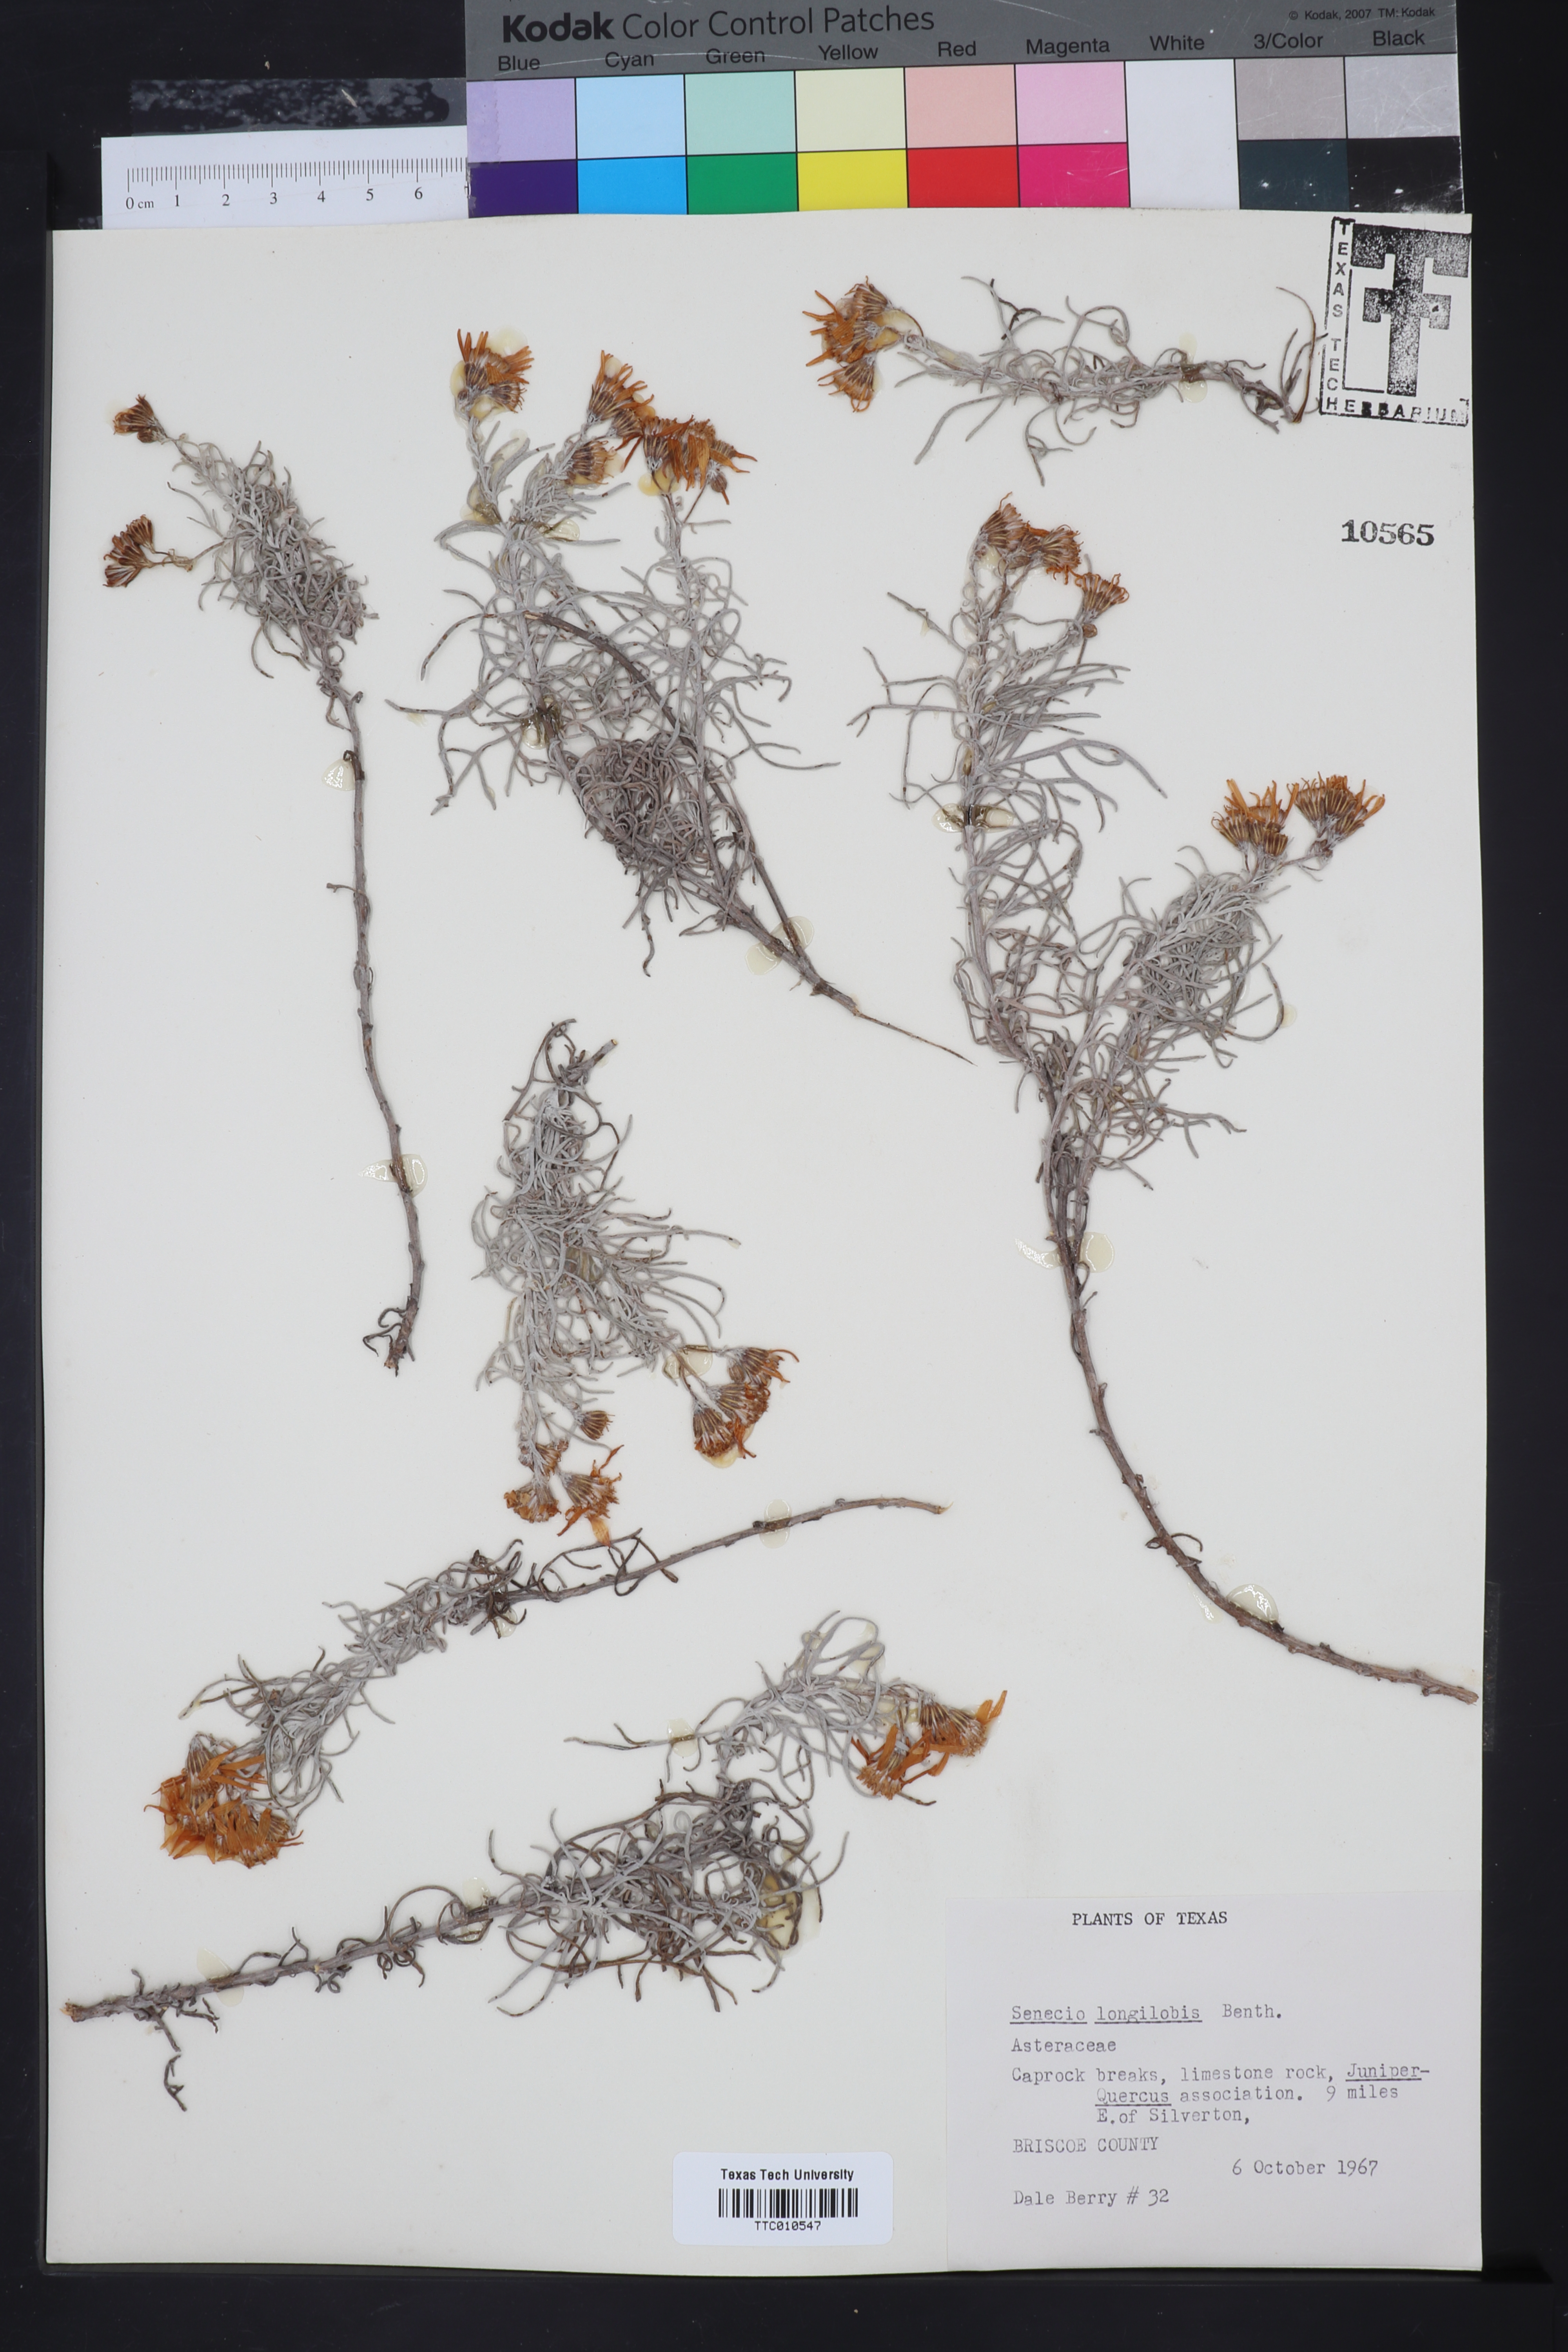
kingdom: Plantae
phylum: Tracheophyta
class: Magnoliopsida
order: Asterales
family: Asteraceae
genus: Senecio
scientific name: Senecio flaccidus
